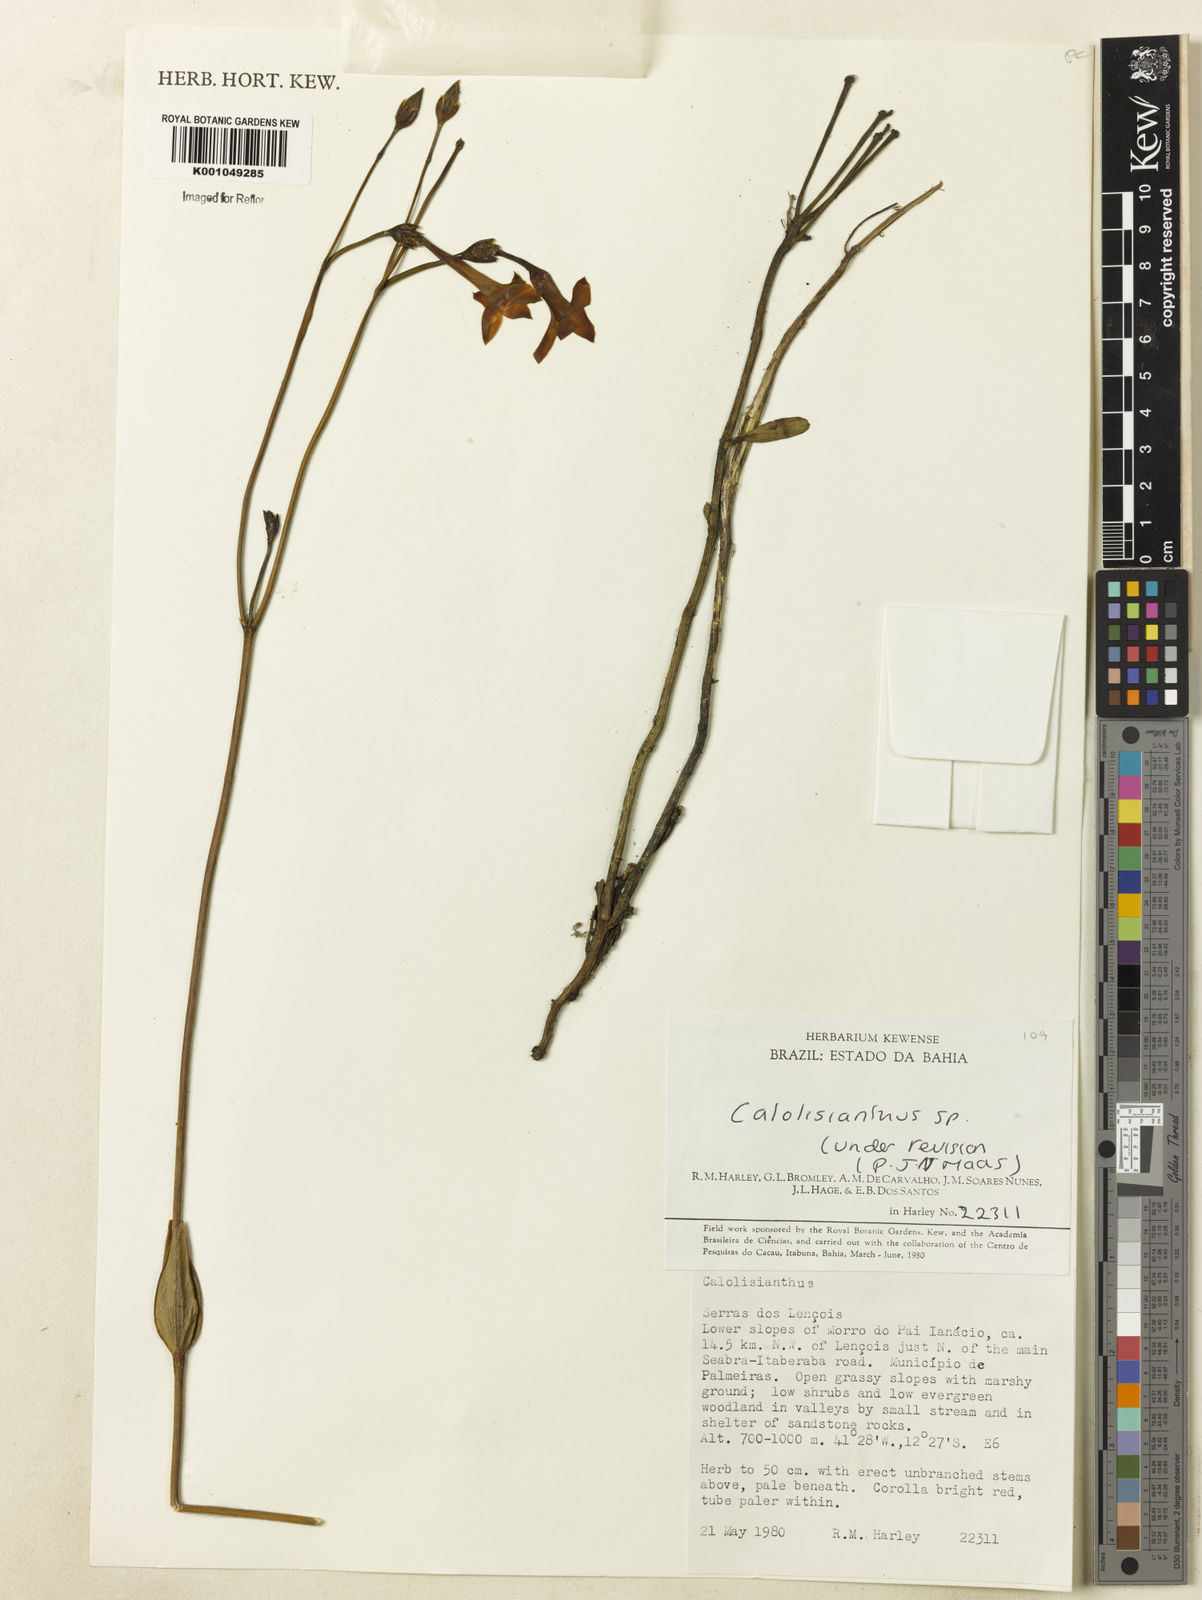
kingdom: Plantae
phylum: Tracheophyta
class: Magnoliopsida
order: Gentianales
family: Gentianaceae
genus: Calolisianthus
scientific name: Calolisianthus
